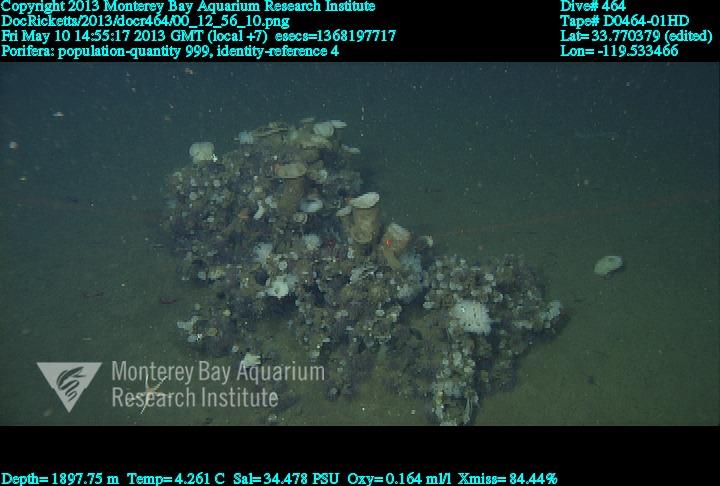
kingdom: Animalia
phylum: Porifera
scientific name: Porifera
